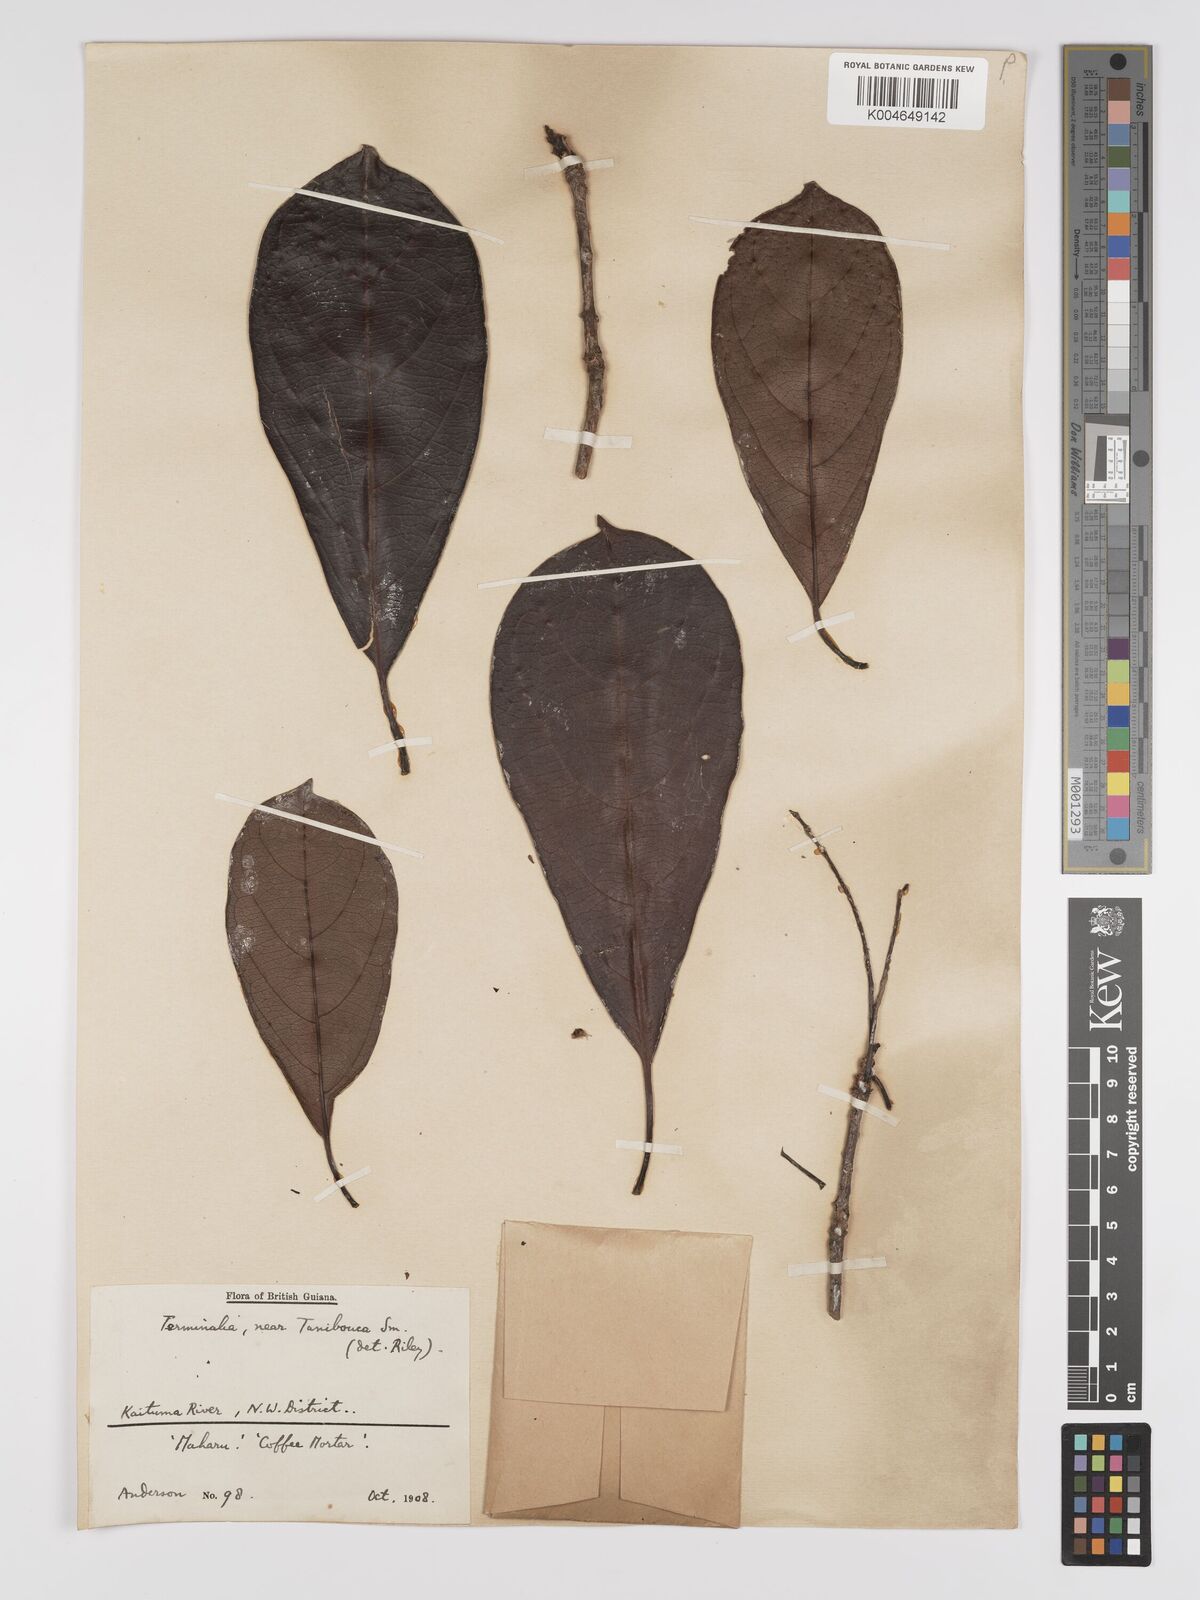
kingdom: Plantae
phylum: Tracheophyta
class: Magnoliopsida
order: Myrtales
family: Combretaceae
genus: Terminalia
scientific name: Terminalia dichotoma
